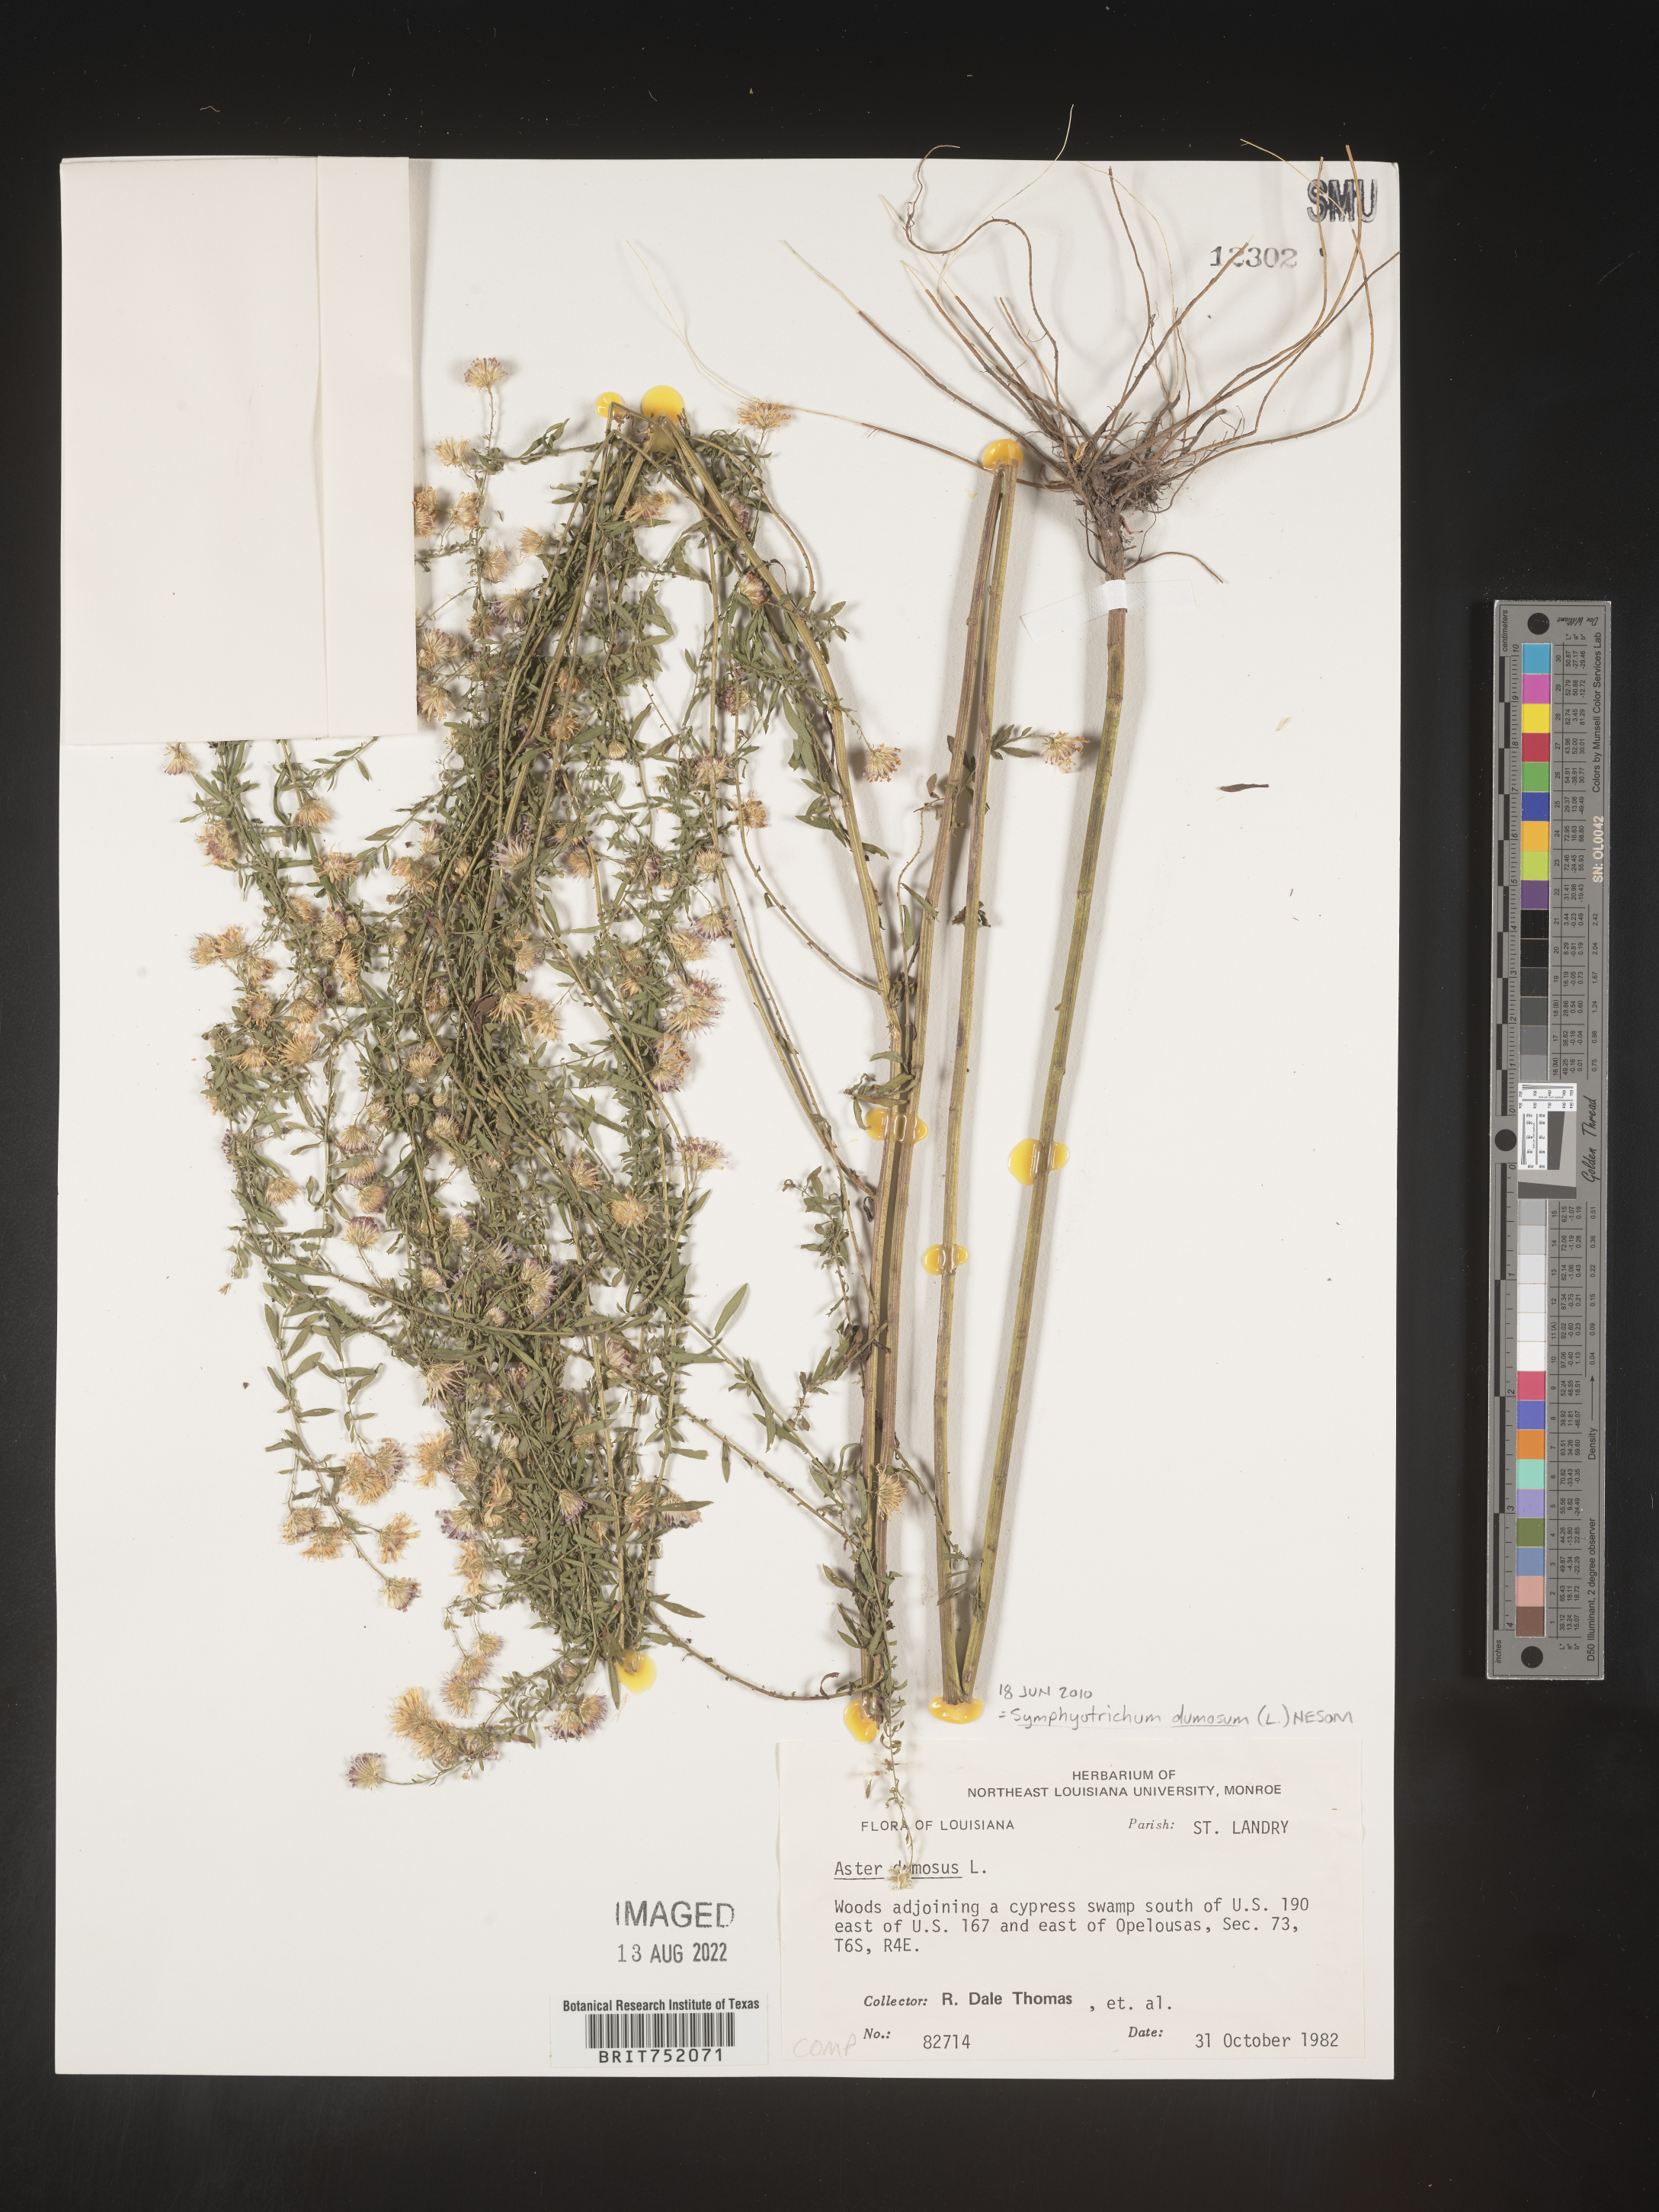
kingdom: Plantae
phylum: Tracheophyta
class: Magnoliopsida
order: Asterales
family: Asteraceae
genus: Symphyotrichum
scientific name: Symphyotrichum dumosum
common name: Bushy aster
